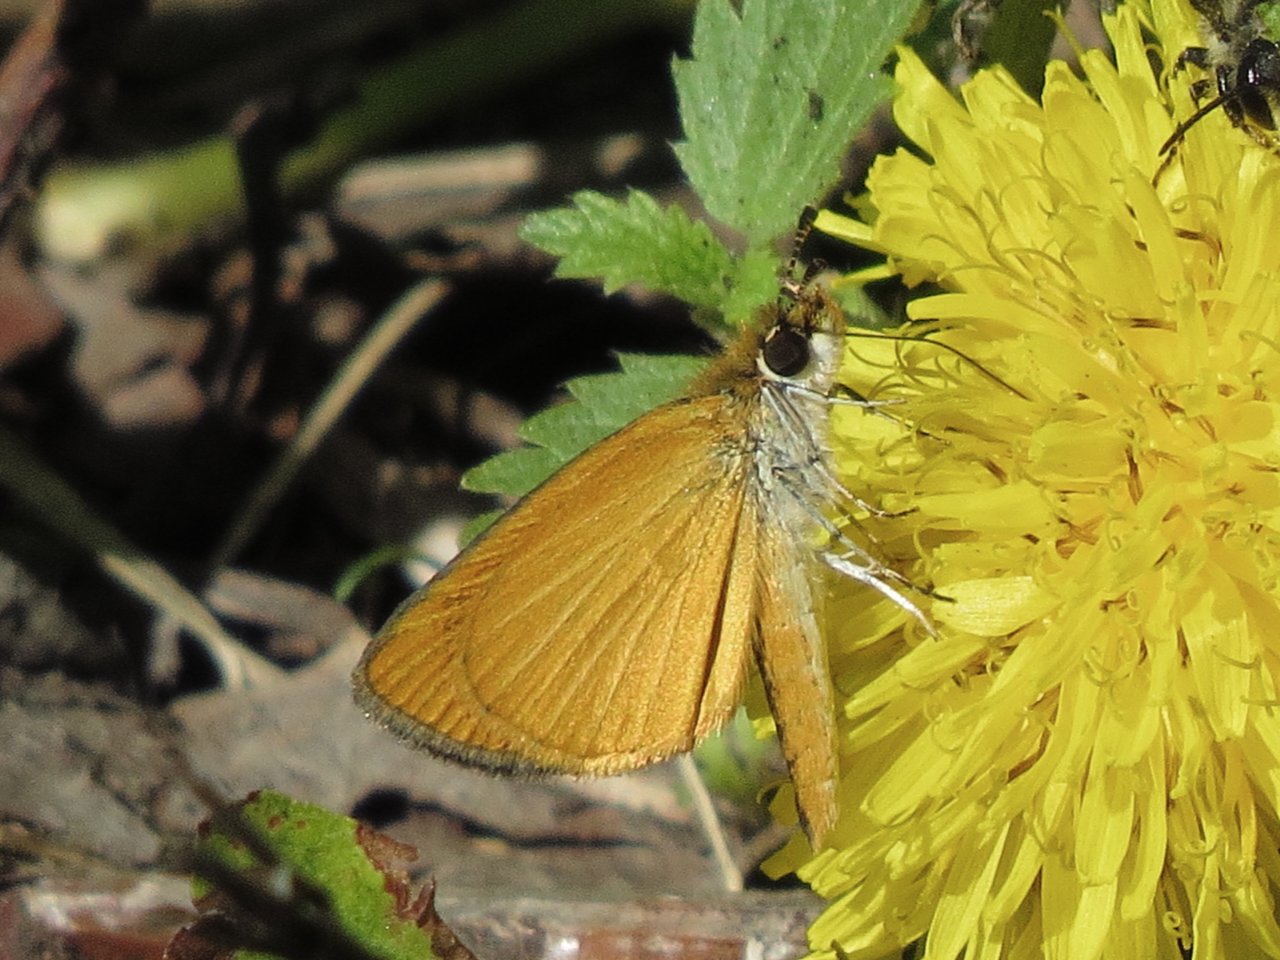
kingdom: Animalia
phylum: Arthropoda
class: Insecta
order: Lepidoptera
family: Hesperiidae
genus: Ancyloxypha
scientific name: Ancyloxypha numitor
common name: Least Skipper
